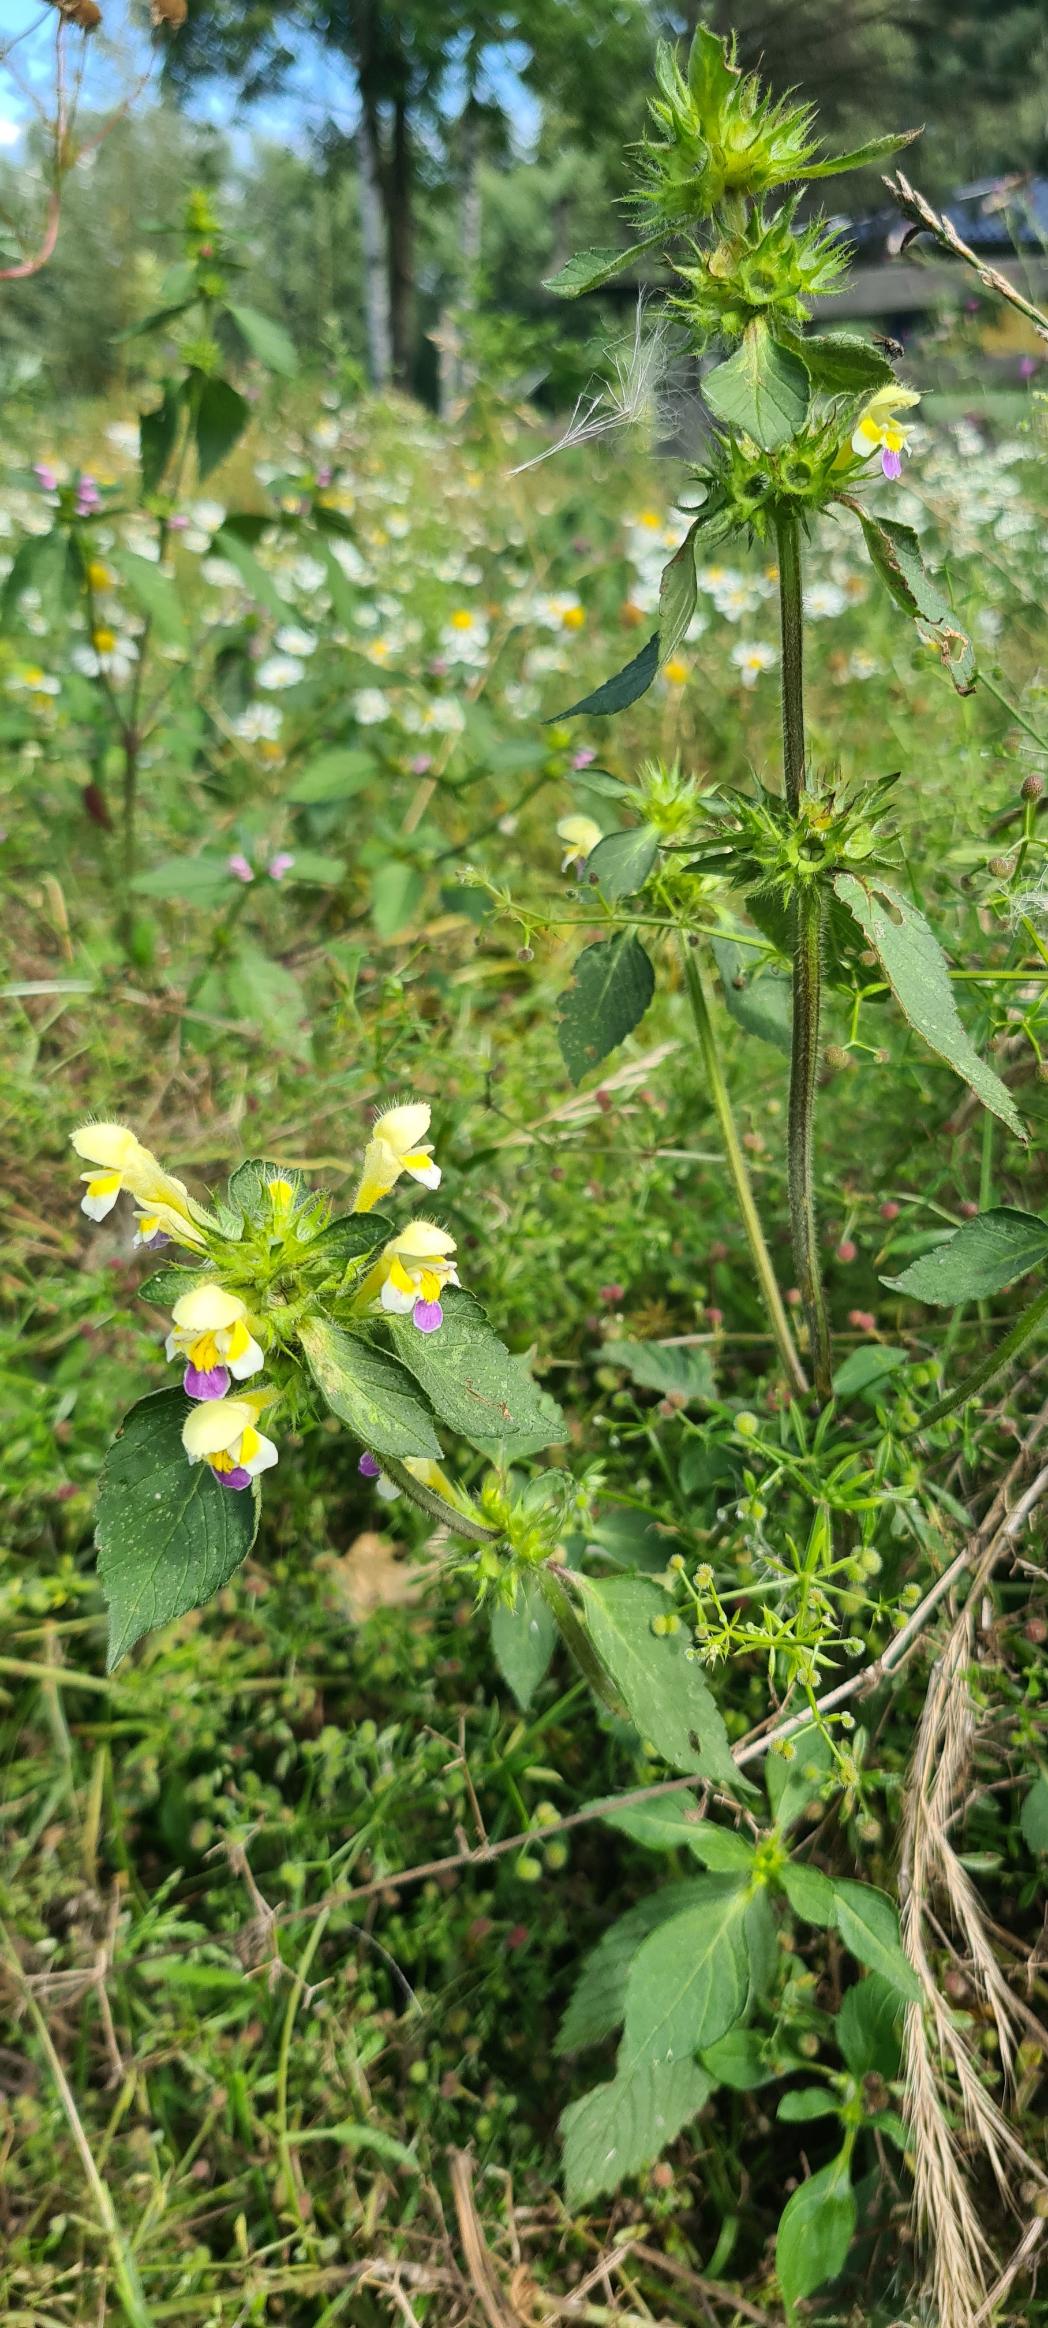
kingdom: Plantae
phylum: Tracheophyta
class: Magnoliopsida
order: Lamiales
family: Lamiaceae
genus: Galeopsis
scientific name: Galeopsis speciosa
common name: Hamp-hanekro
